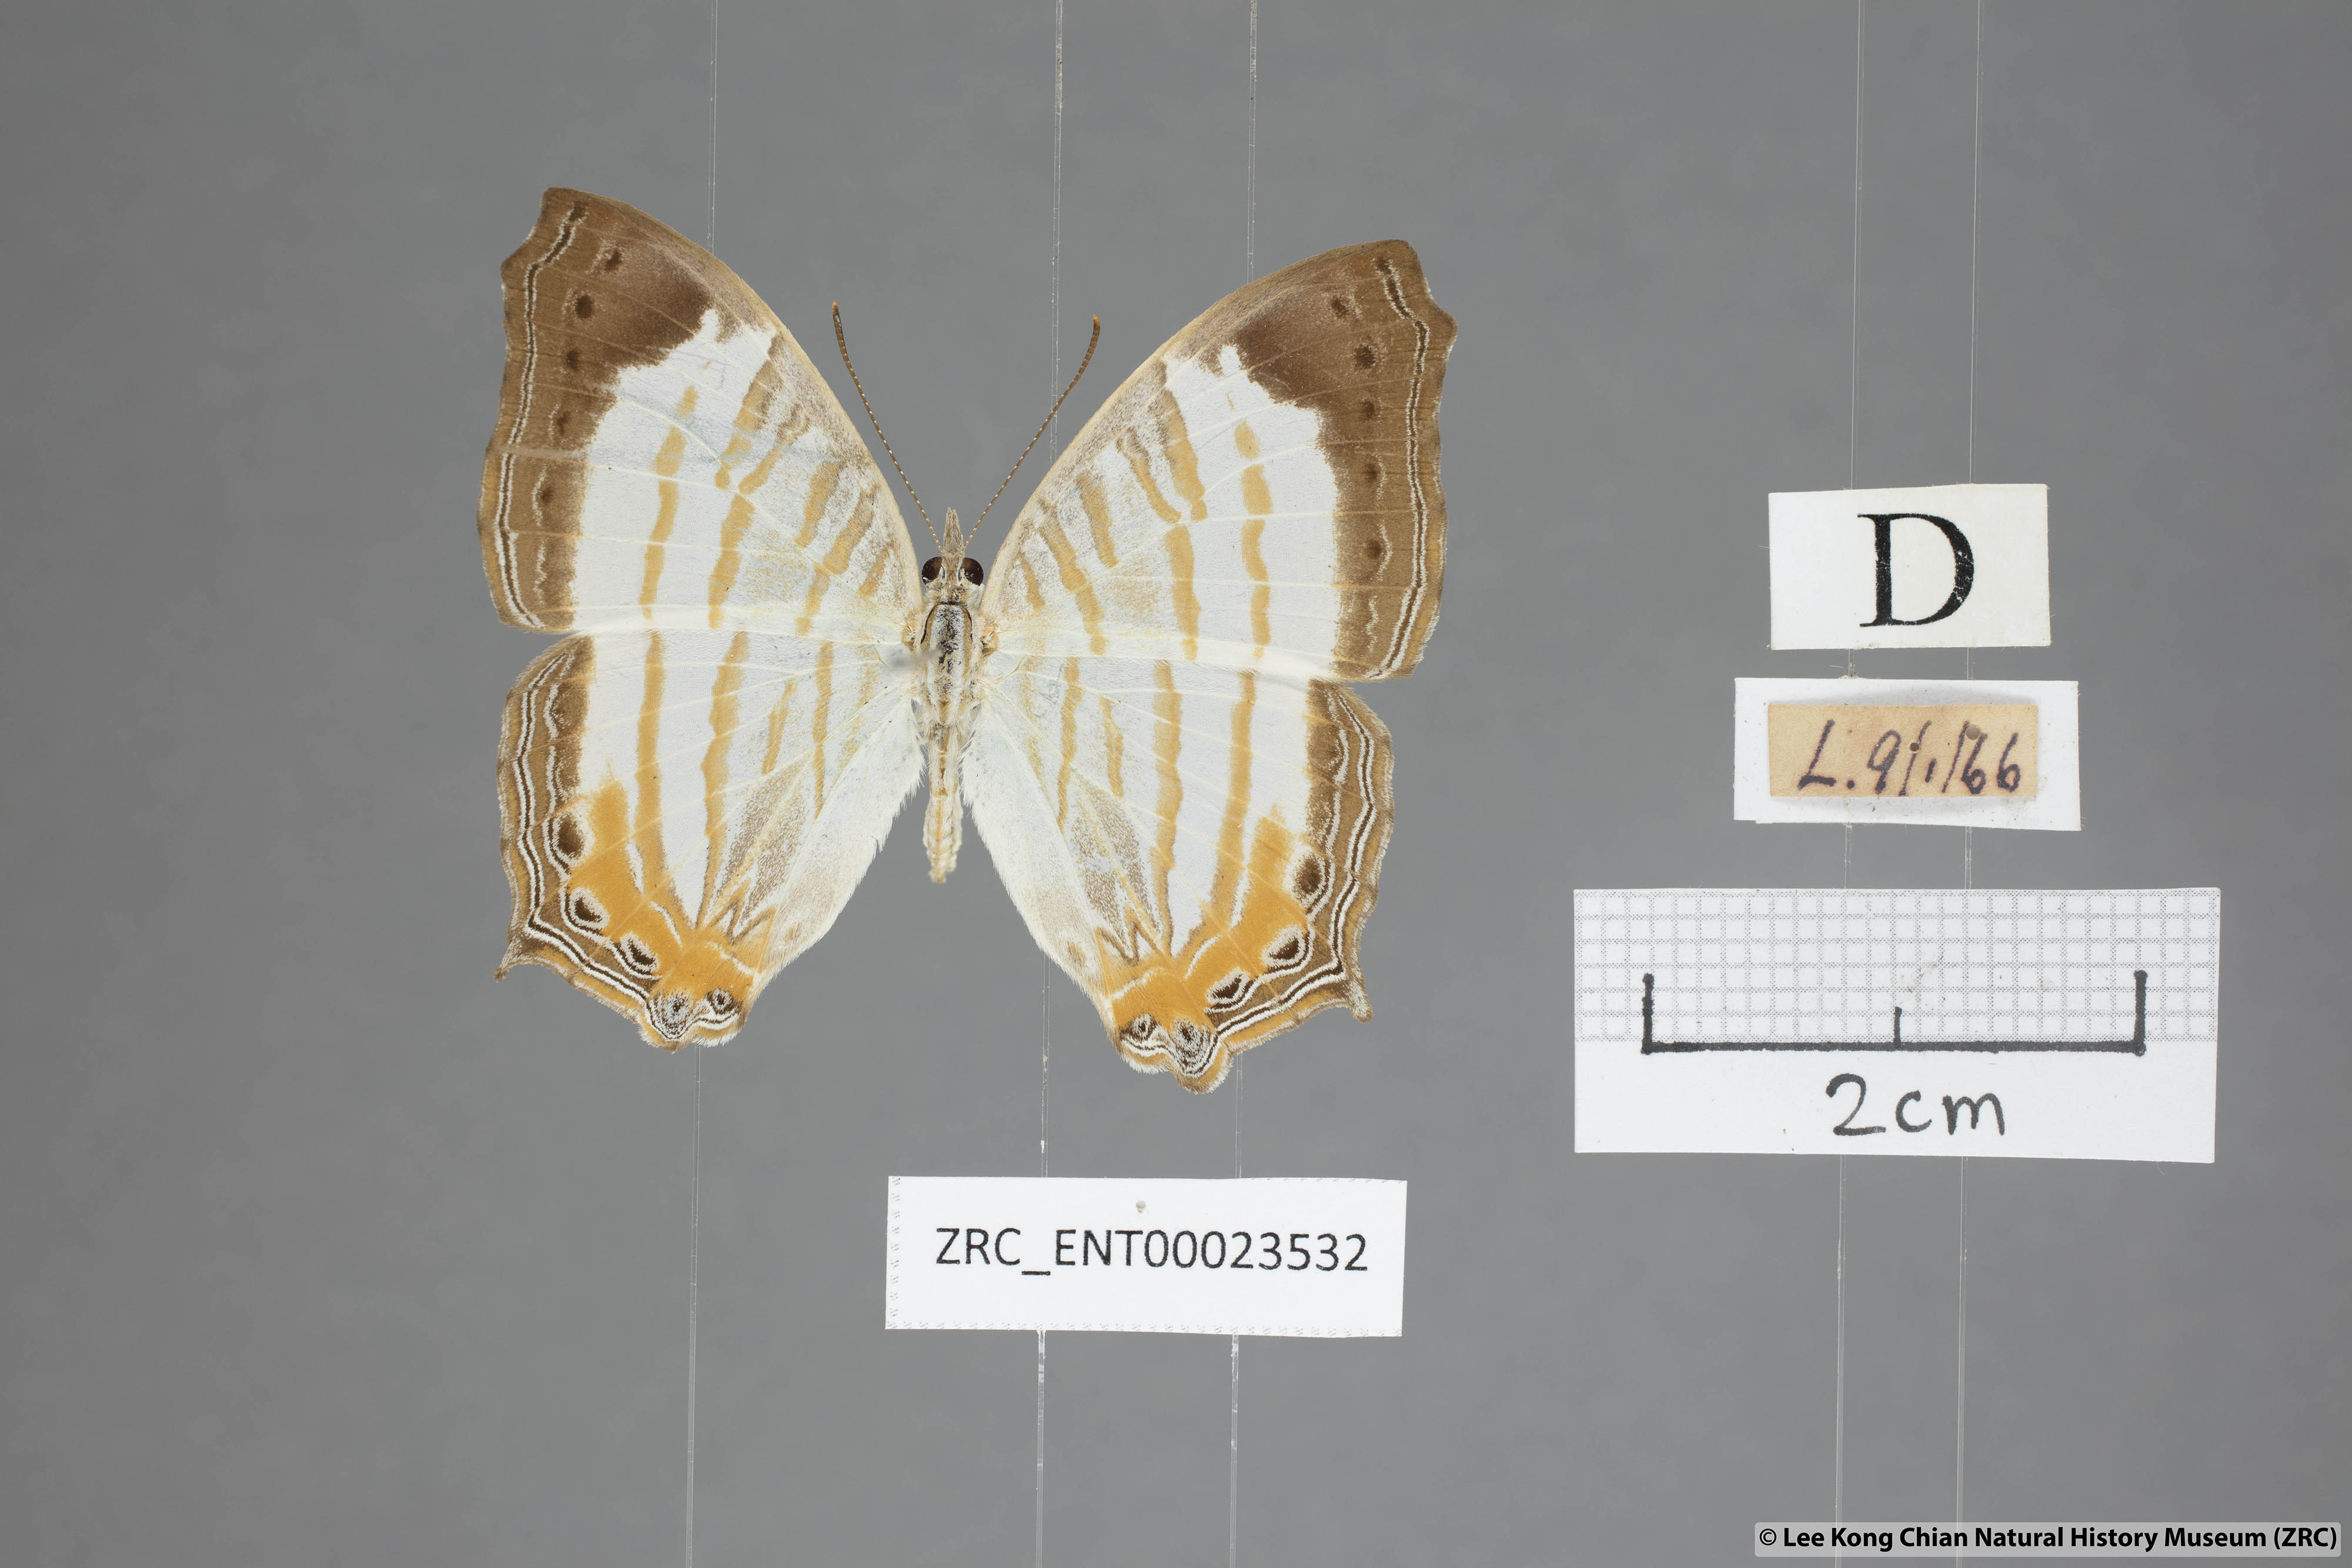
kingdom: Animalia
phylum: Arthropoda
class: Insecta
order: Lepidoptera
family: Nymphalidae
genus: Cyrestis
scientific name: Cyrestis themire
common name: Little mapwing
